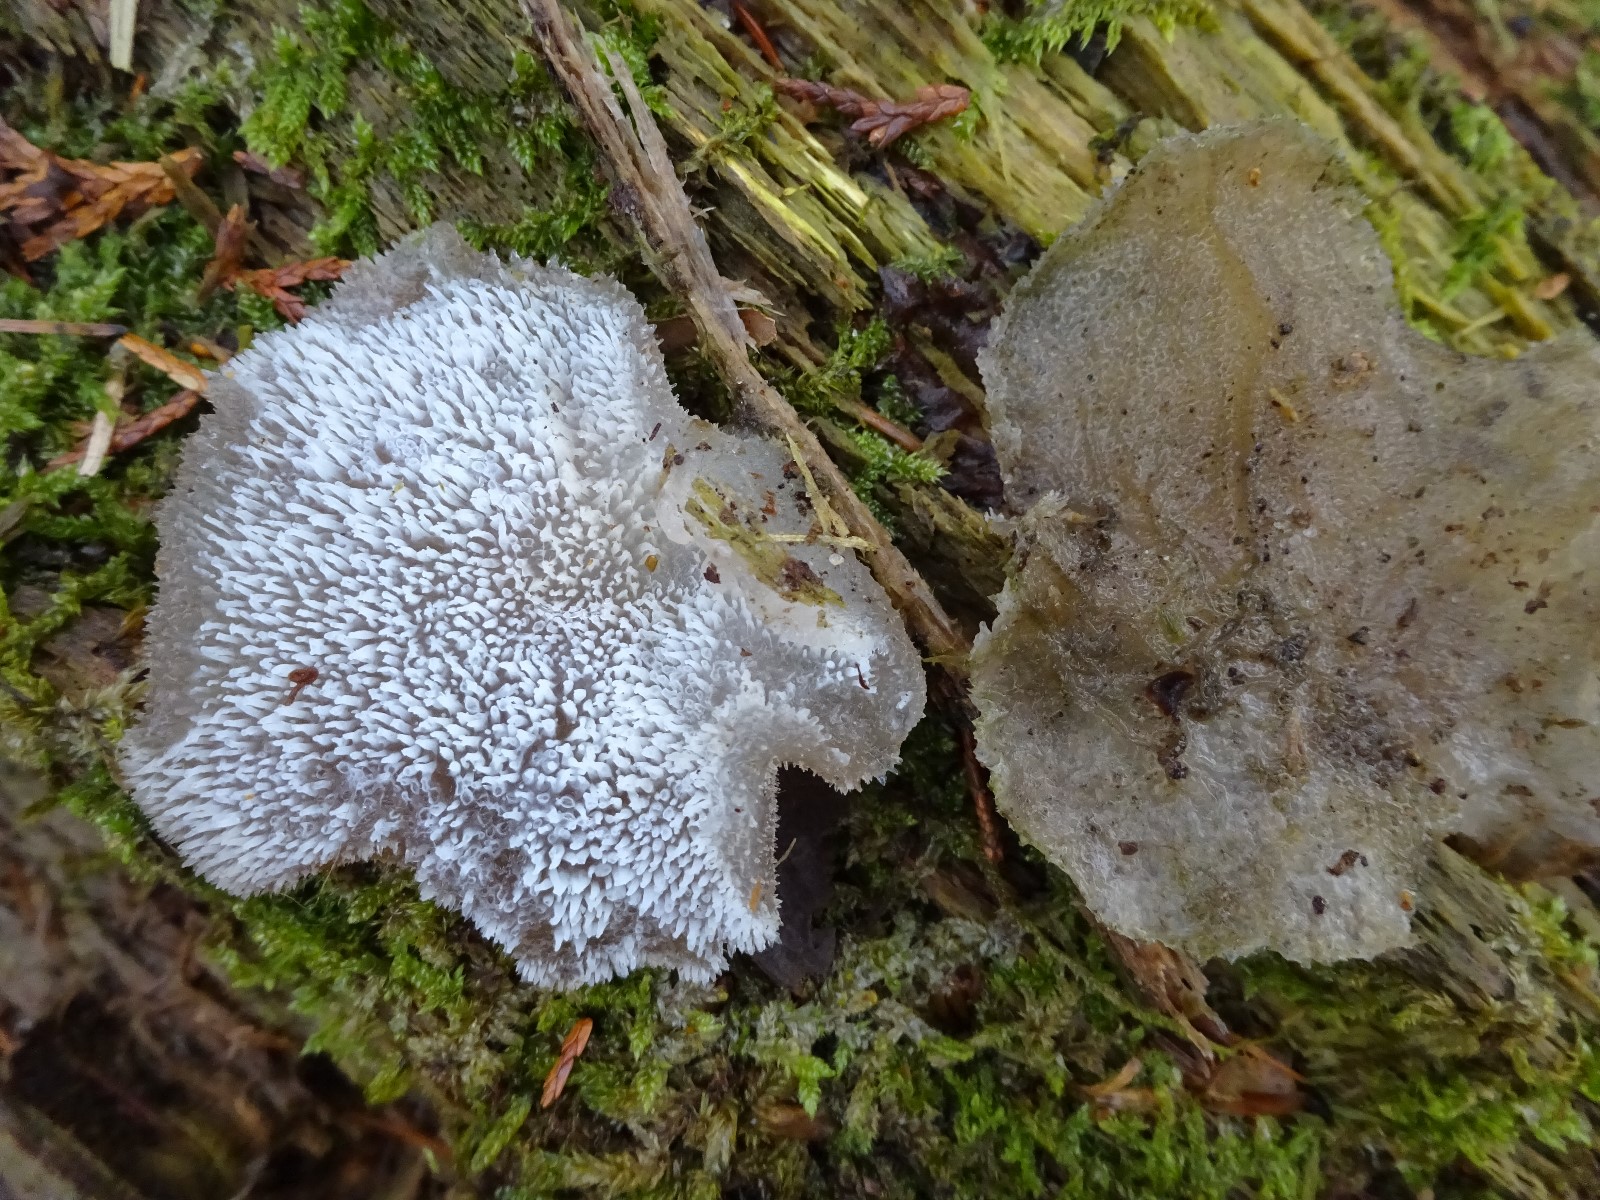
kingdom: Fungi
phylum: Basidiomycota
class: Agaricomycetes
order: Auriculariales
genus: Pseudohydnum
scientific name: Pseudohydnum gelatinosum
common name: bævretand
